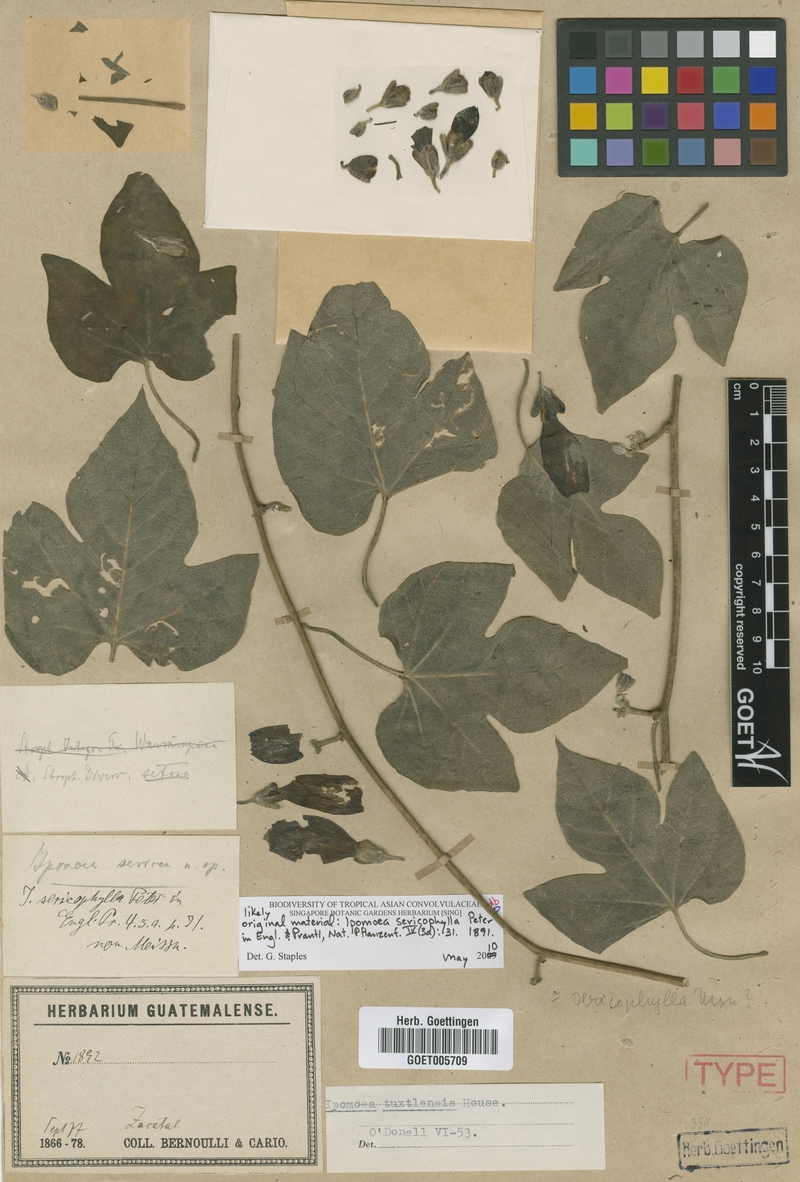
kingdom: Plantae
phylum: Tracheophyta
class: Magnoliopsida
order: Solanales
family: Convolvulaceae
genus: Ipomoea
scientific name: Ipomoea peteri
